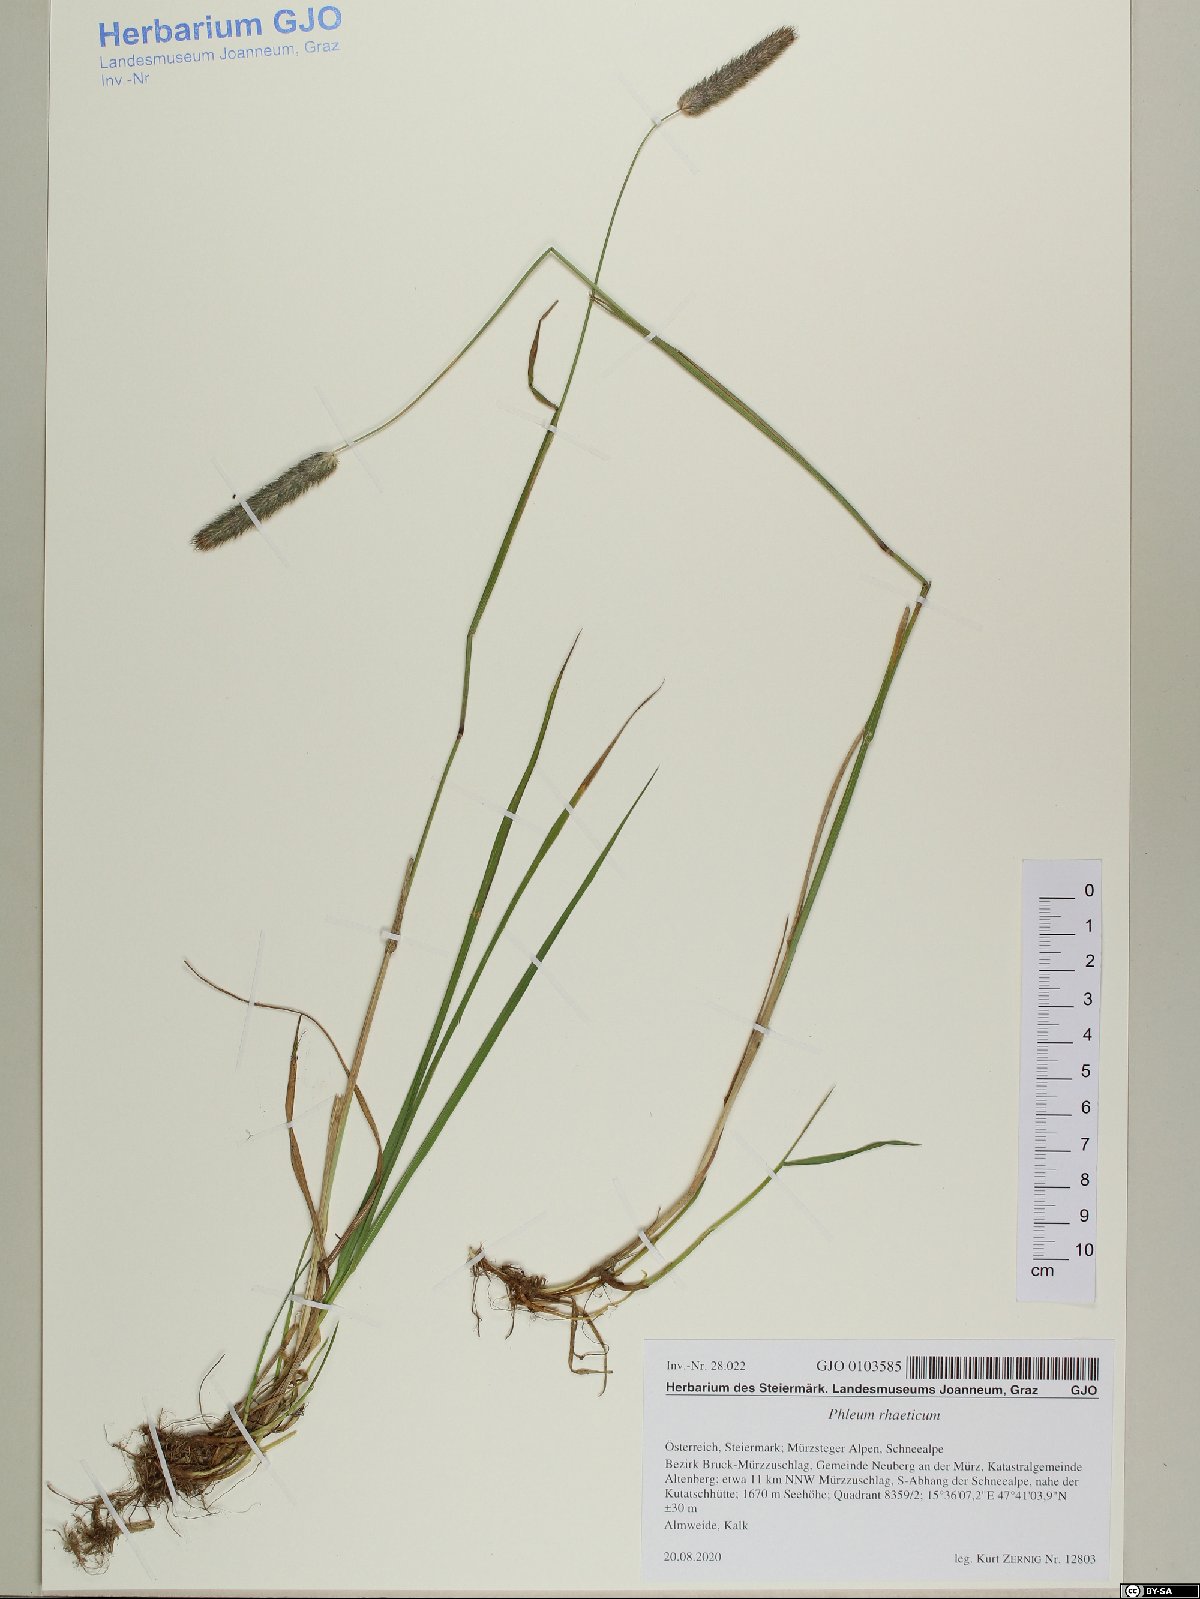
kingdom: Plantae
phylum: Tracheophyta
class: Liliopsida
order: Poales
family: Poaceae
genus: Phleum
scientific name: Phleum alpinum
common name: Alpine cat's-tail
